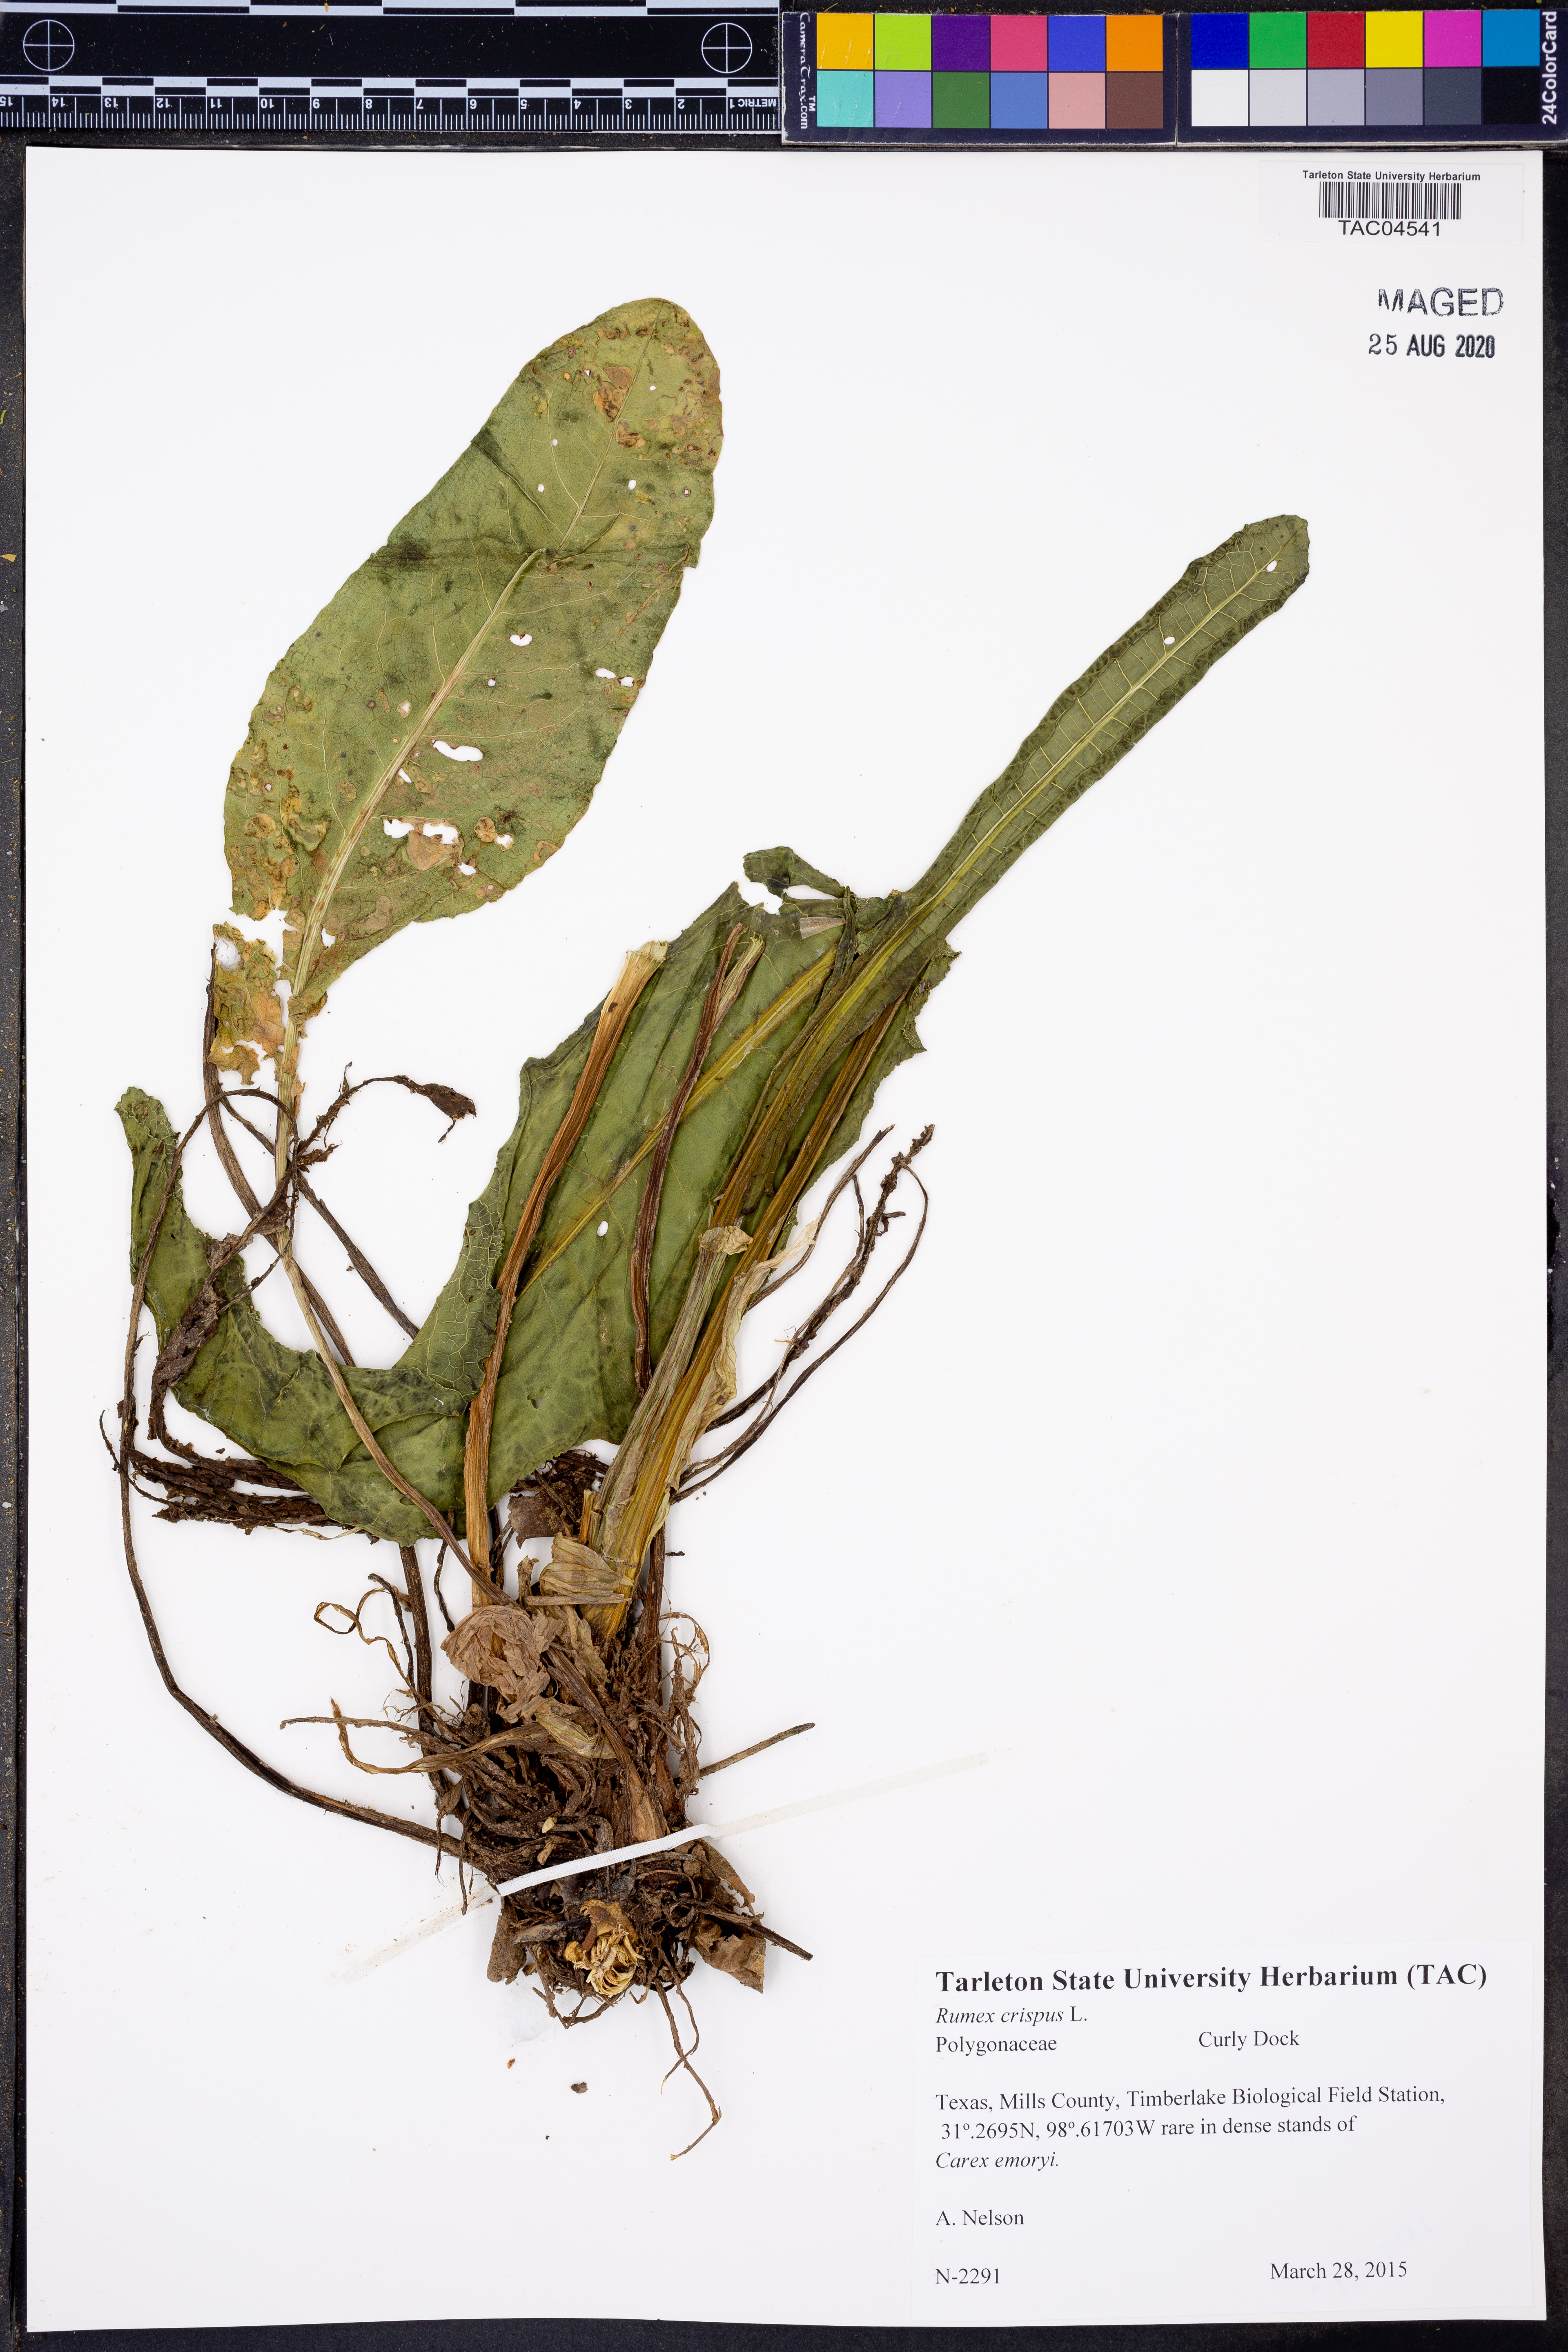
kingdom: Plantae
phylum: Tracheophyta
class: Magnoliopsida
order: Caryophyllales
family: Polygonaceae
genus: Rumex
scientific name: Rumex crispus
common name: Curled dock
